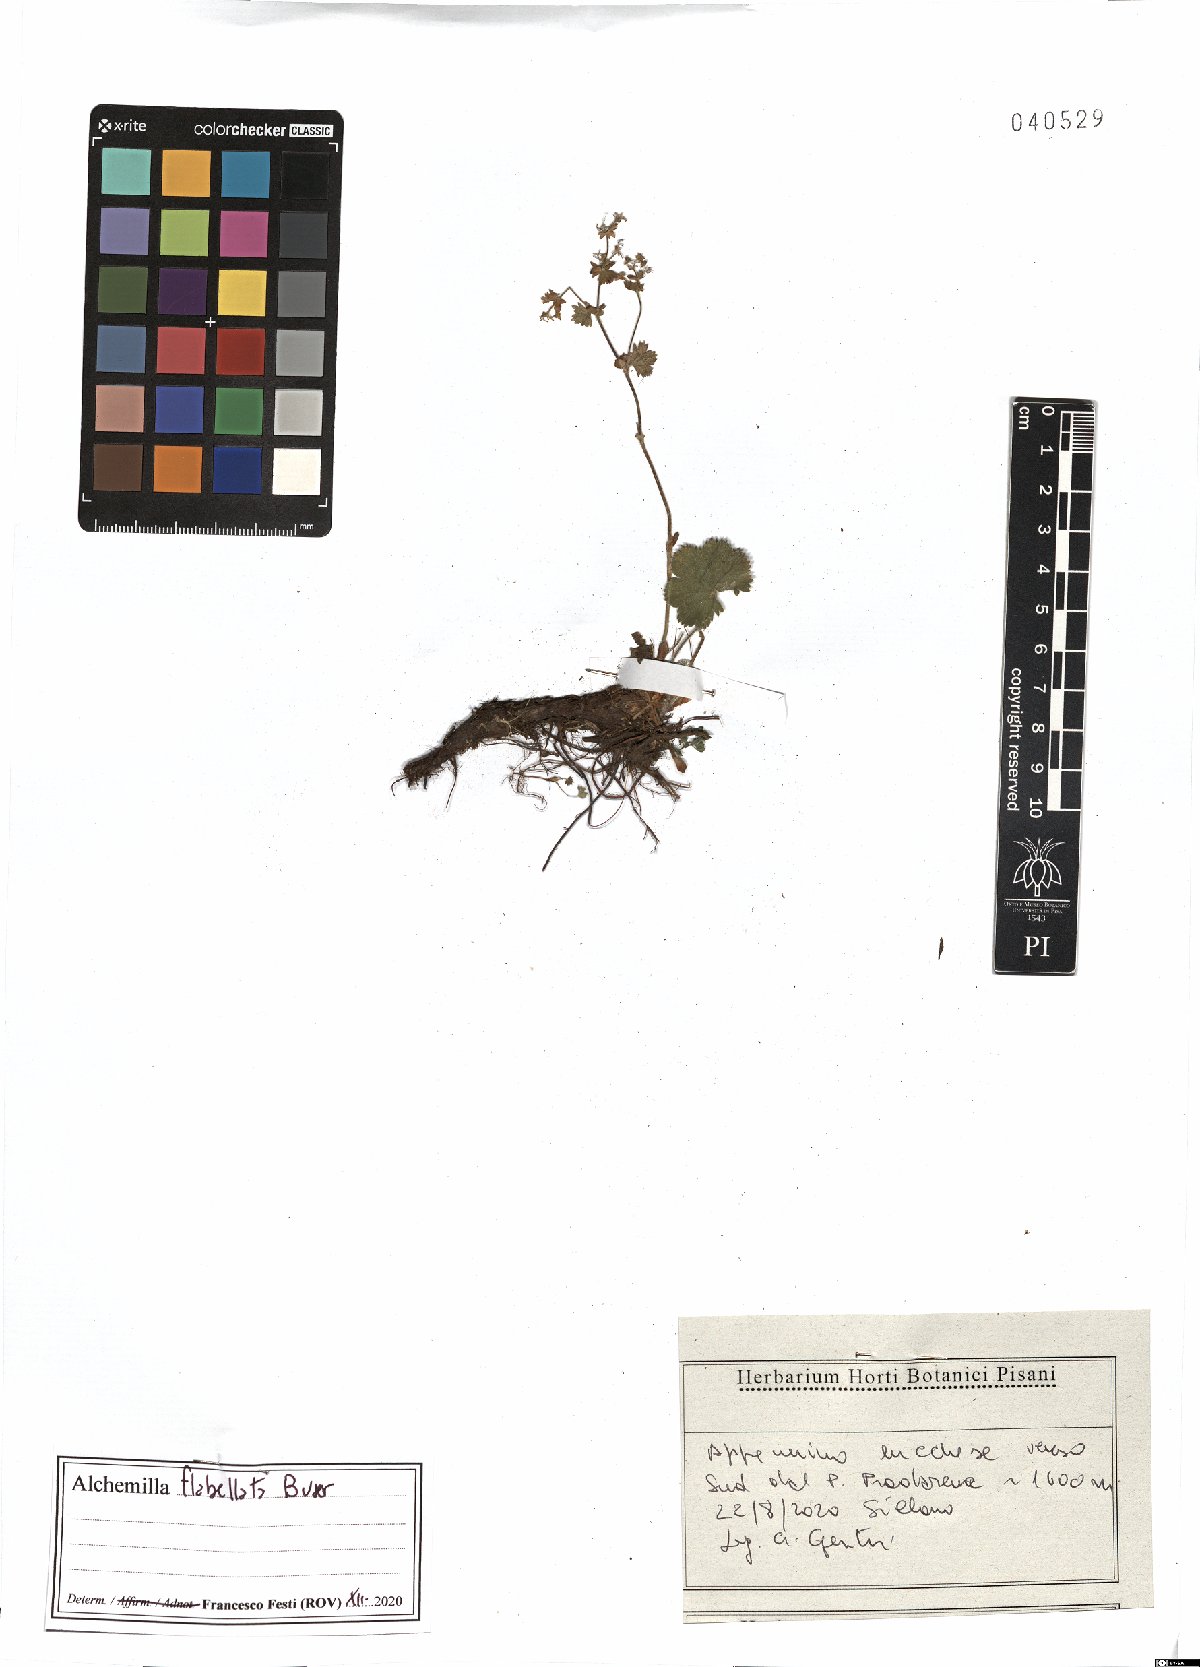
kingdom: Plantae
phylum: Tracheophyta
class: Magnoliopsida
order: Rosales
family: Rosaceae
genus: Alchemilla
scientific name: Alchemilla flabellata
